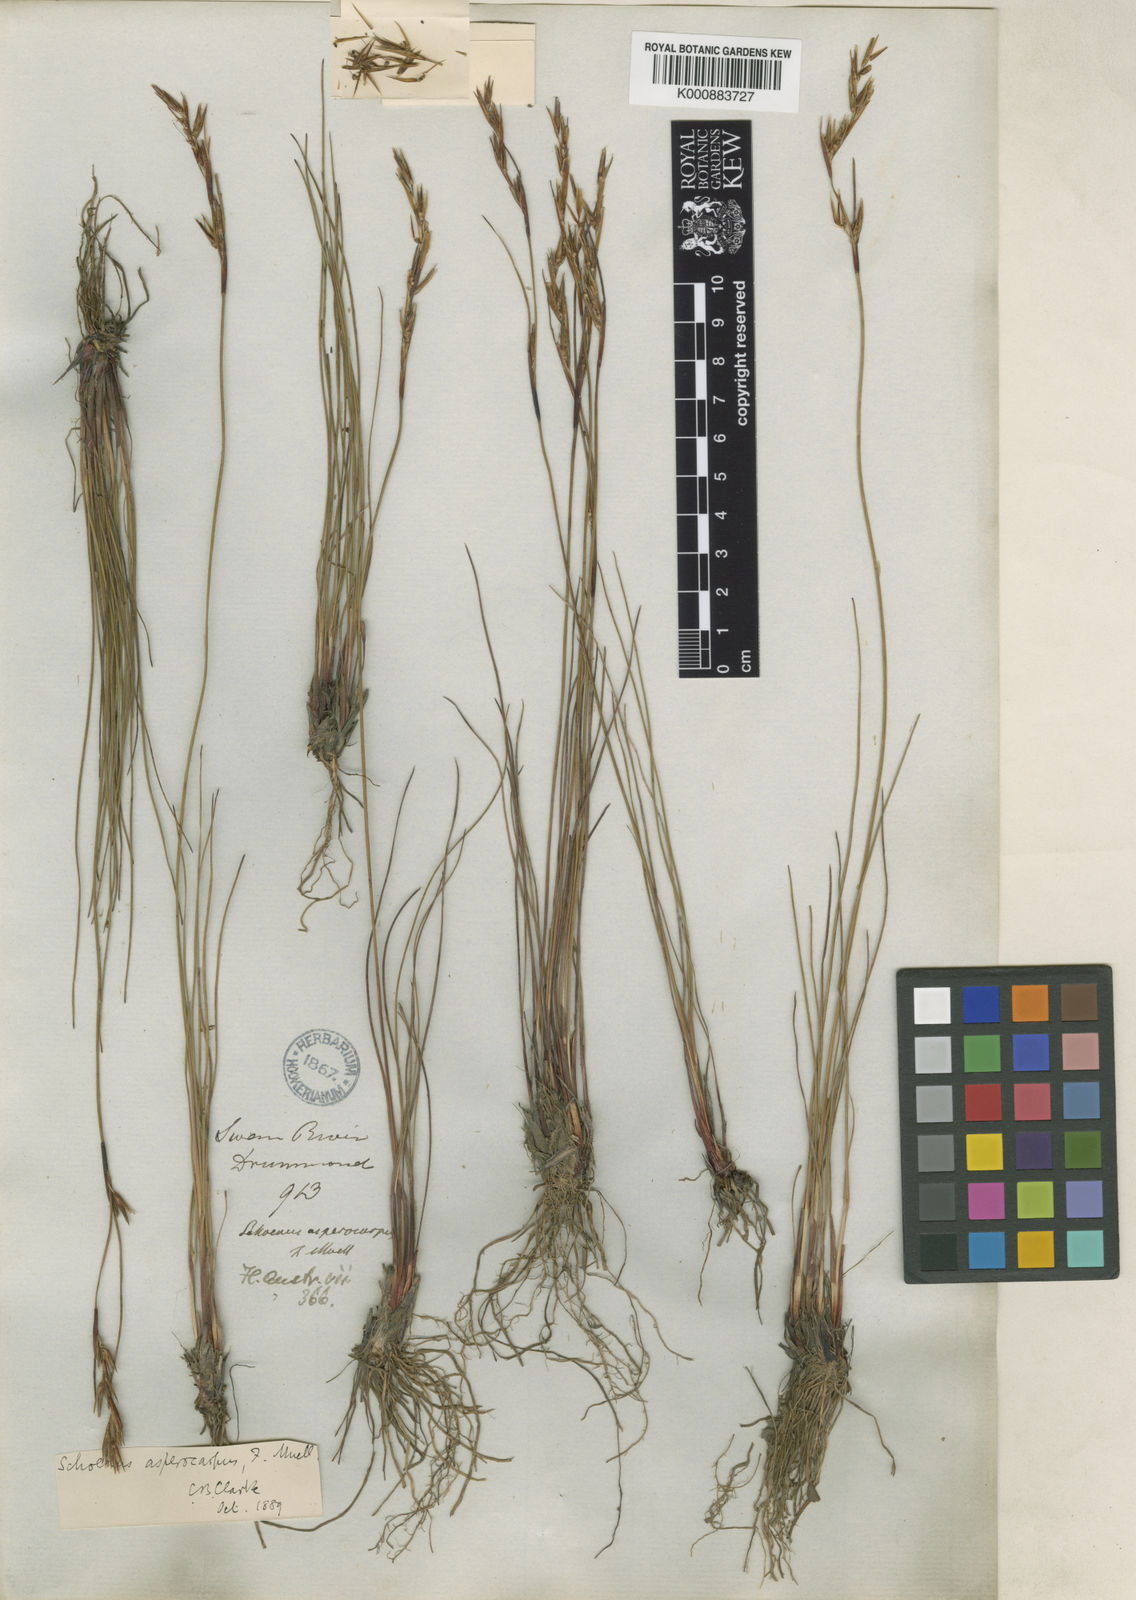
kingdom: Plantae
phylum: Tracheophyta
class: Liliopsida
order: Poales
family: Cyperaceae
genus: Schoenus
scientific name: Schoenus asperocarpus
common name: Poison sedge
